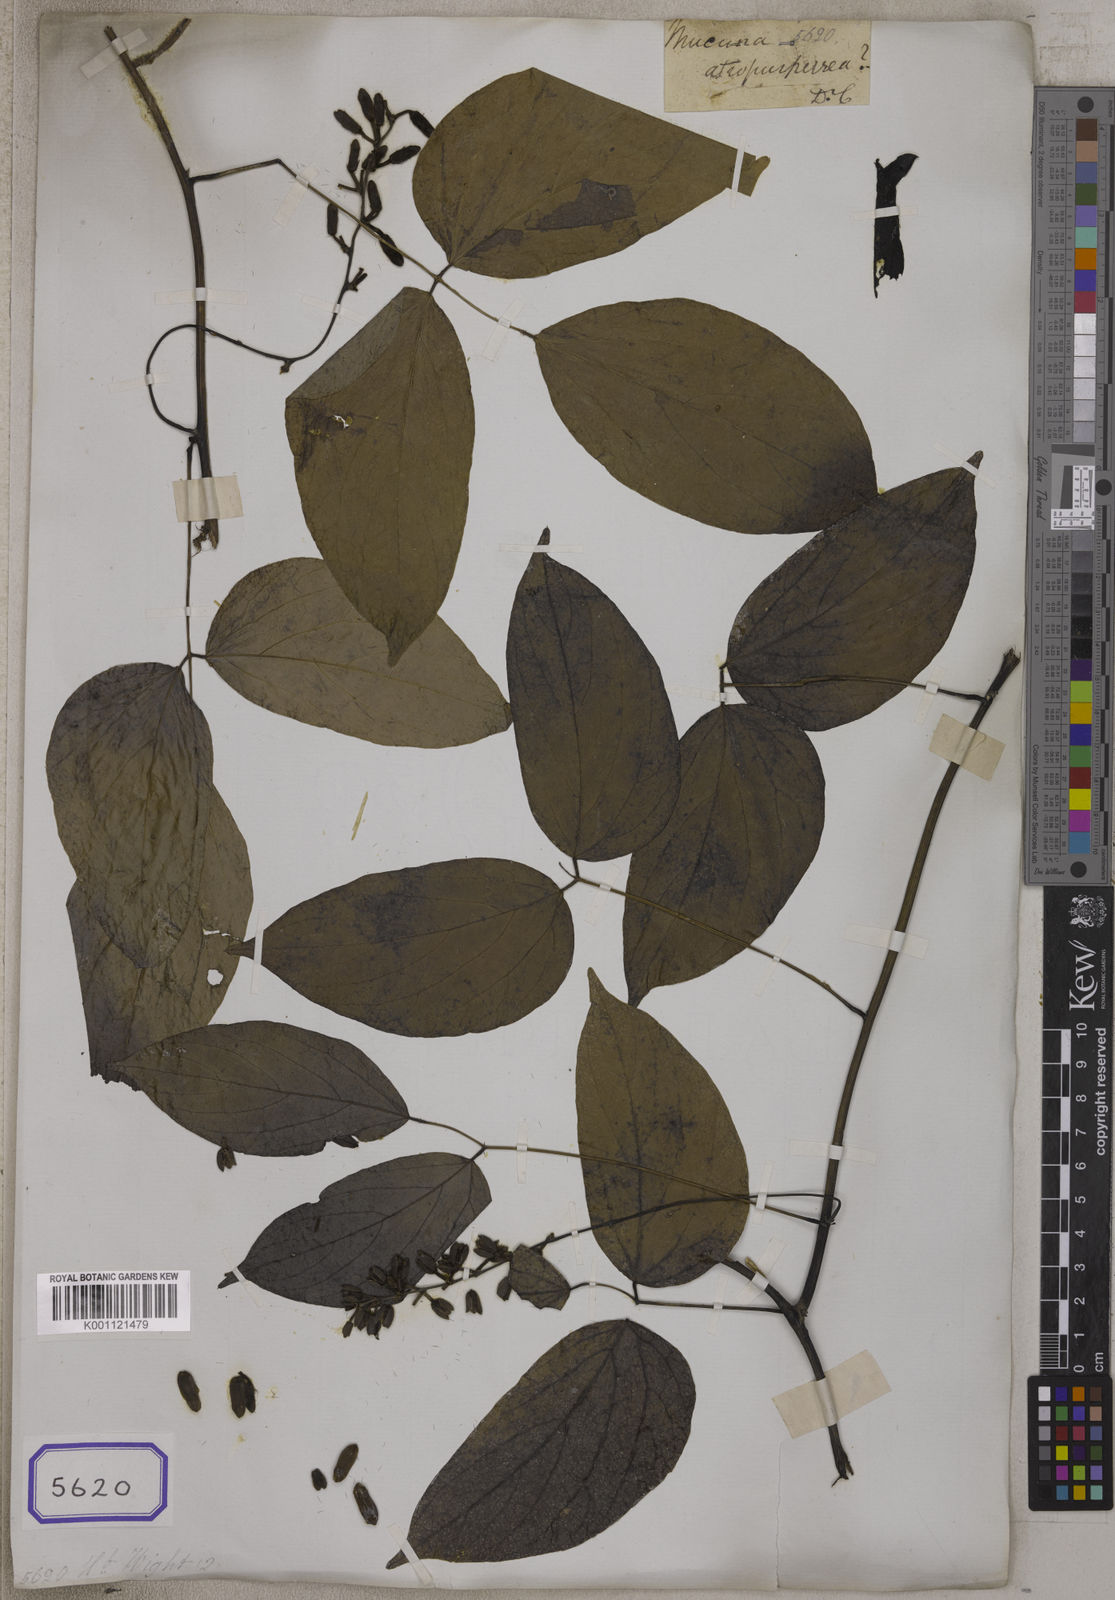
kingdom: Plantae
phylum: Tracheophyta
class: Magnoliopsida
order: Fabales
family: Fabaceae
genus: Mucuna
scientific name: Mucuna
